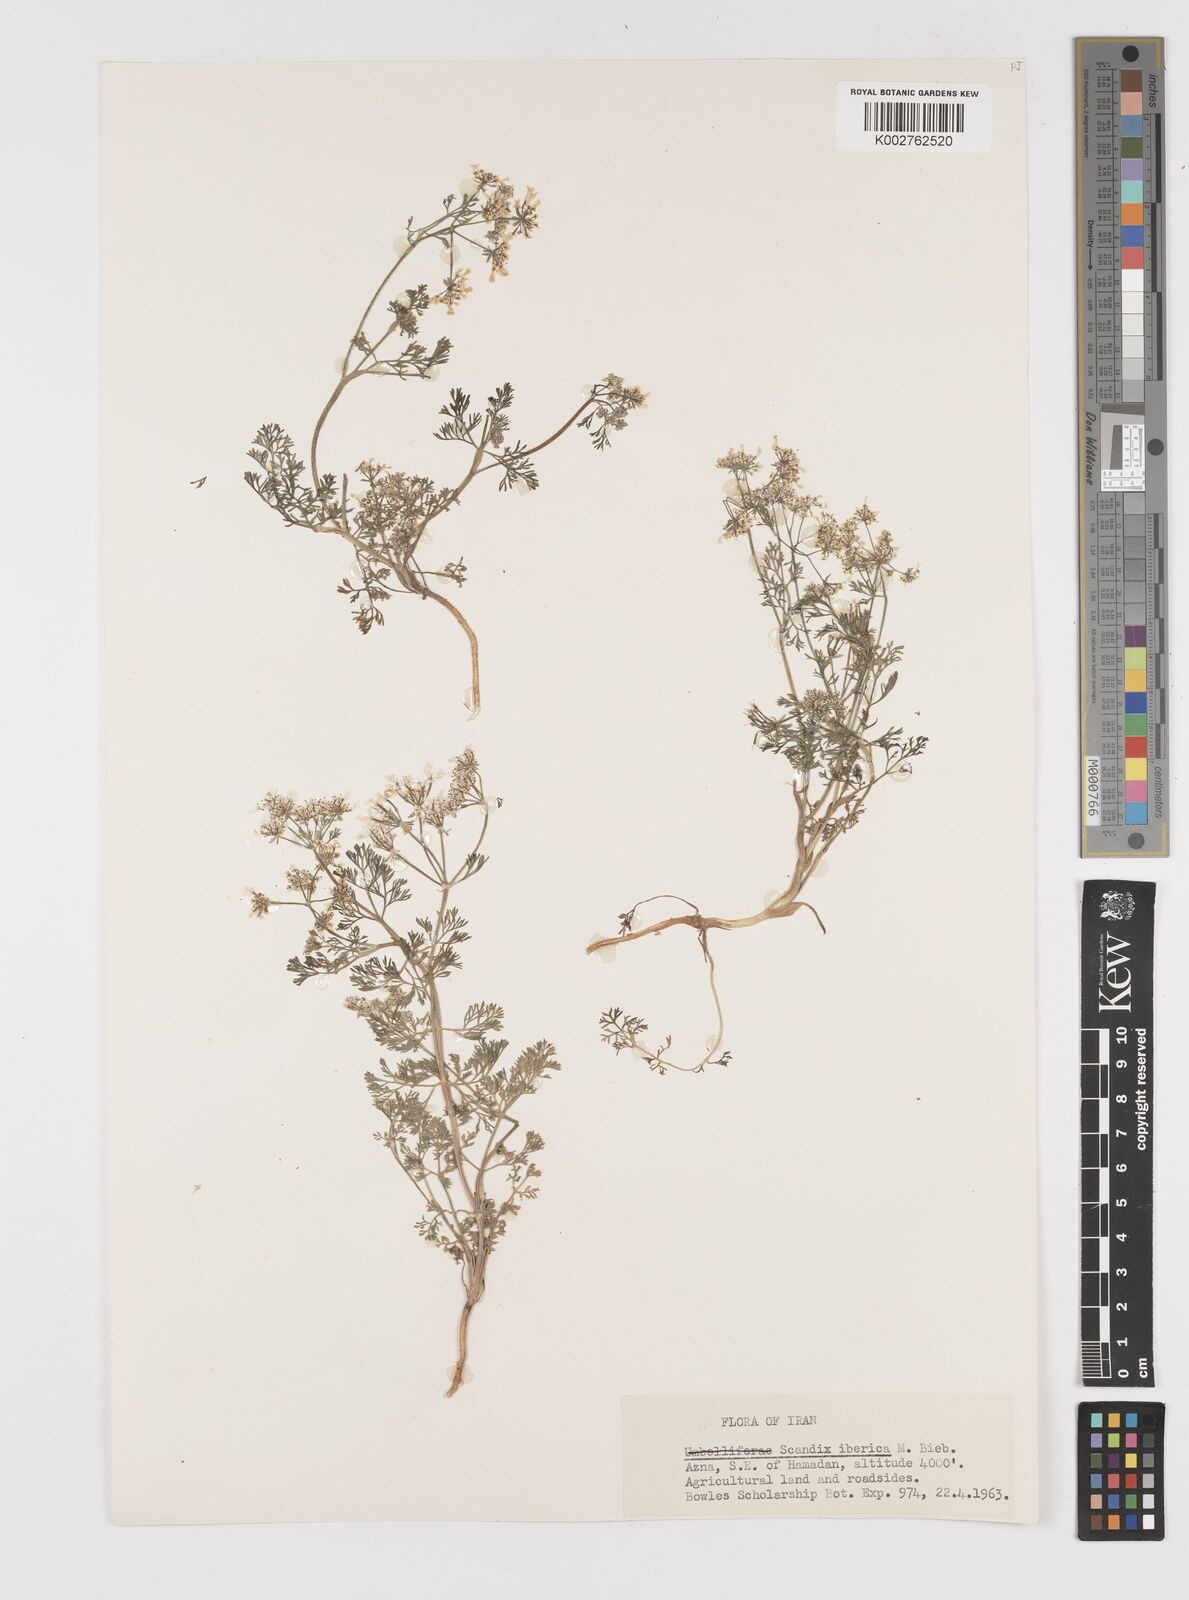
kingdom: Plantae
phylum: Tracheophyta
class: Magnoliopsida
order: Apiales
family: Apiaceae
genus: Scandix
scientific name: Scandix iberica
